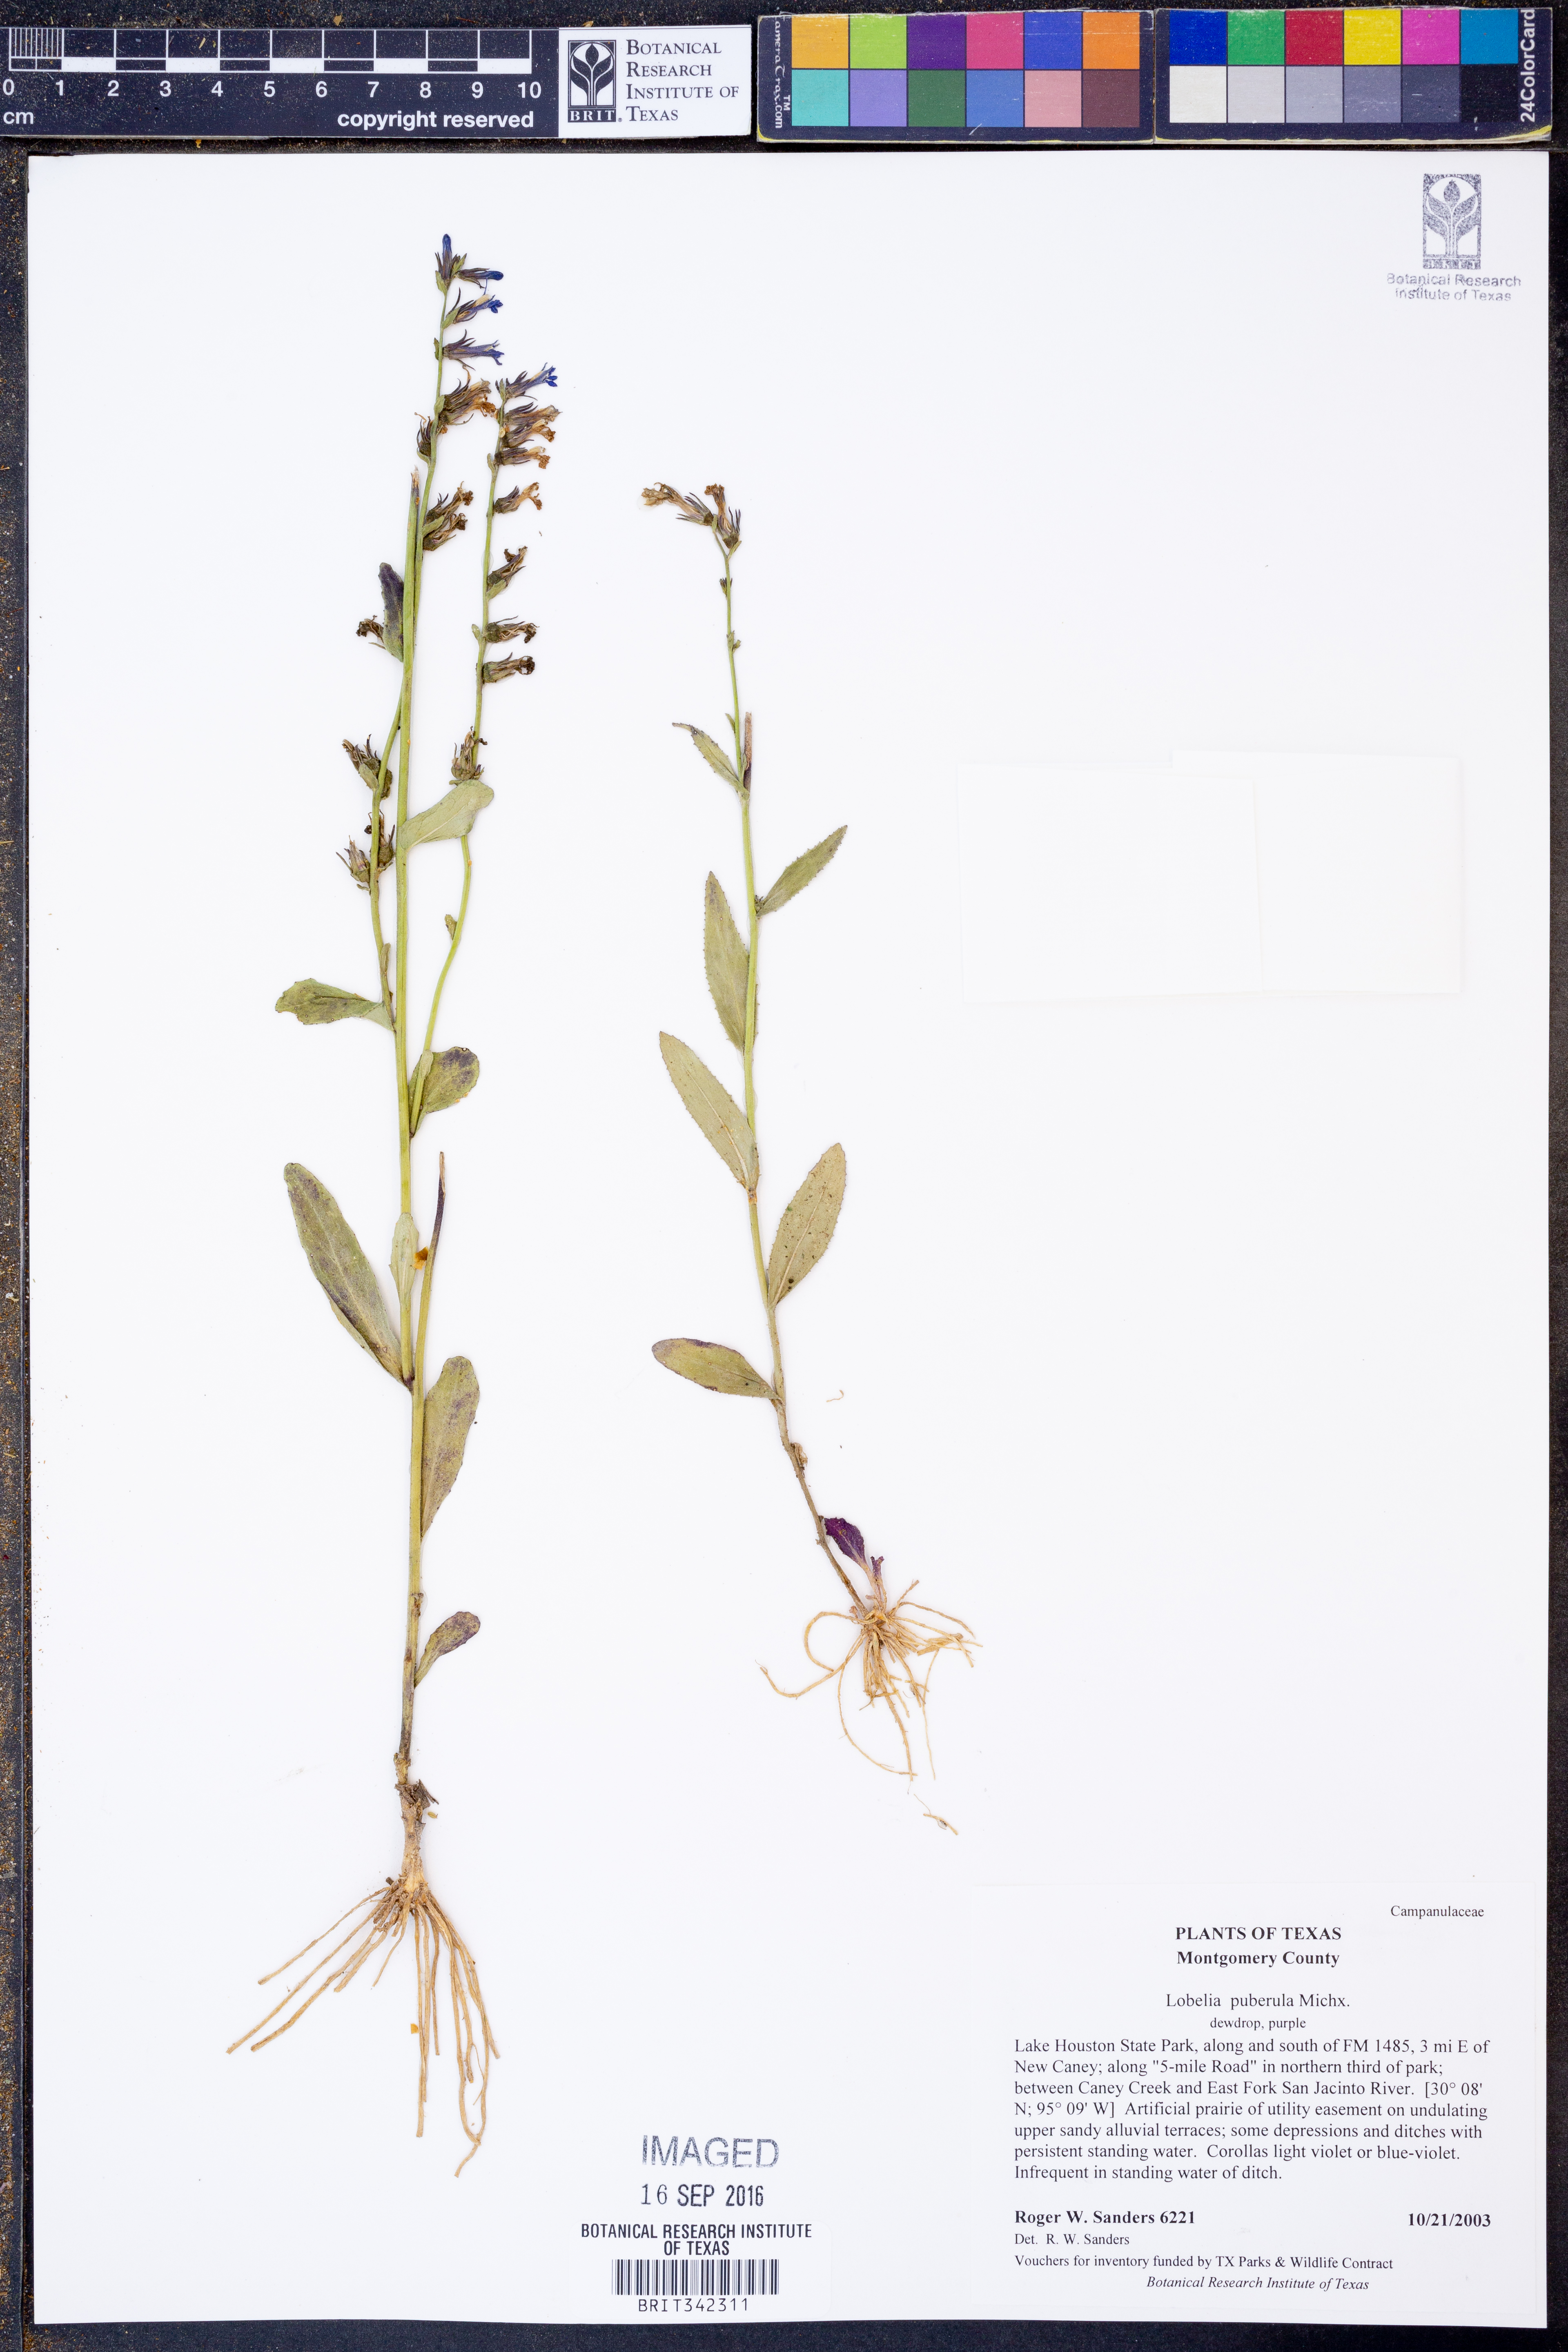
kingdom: Plantae
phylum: Tracheophyta
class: Magnoliopsida
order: Asterales
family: Campanulaceae
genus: Lobelia
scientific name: Lobelia puberula
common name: Purple dewdrop
